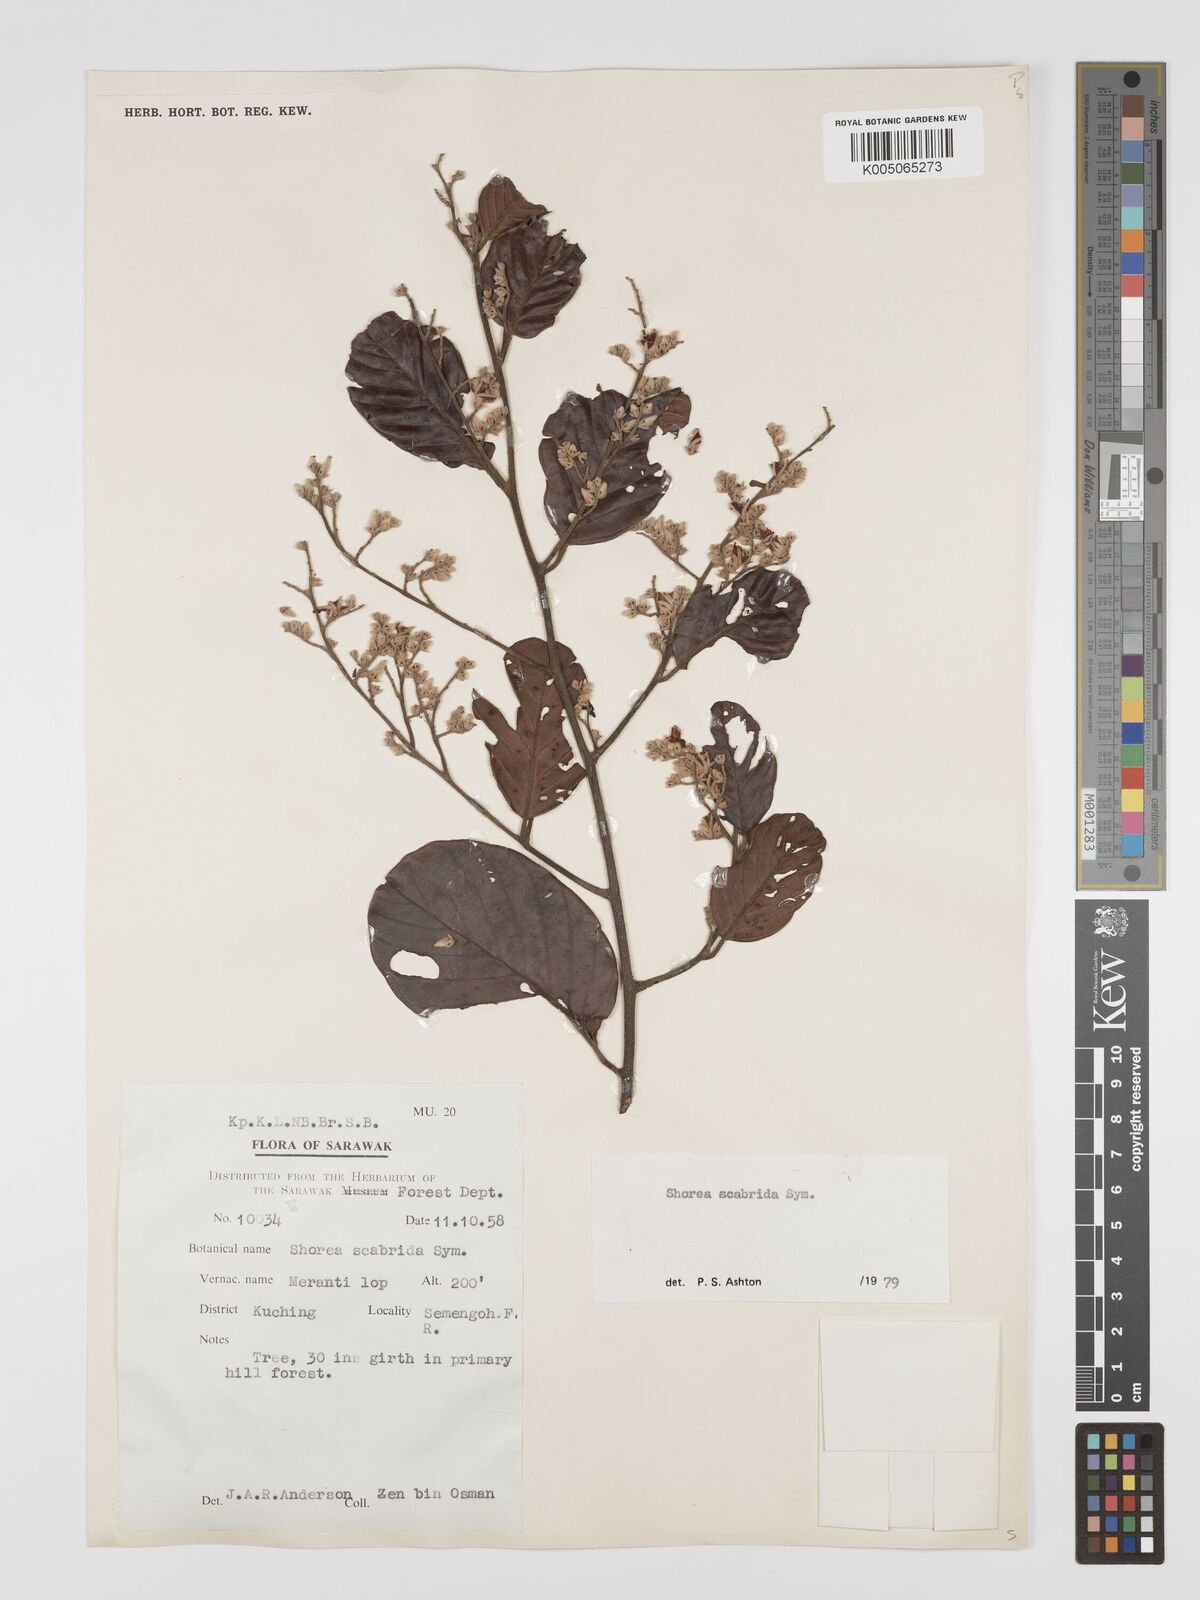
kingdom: Plantae
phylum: Tracheophyta
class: Magnoliopsida
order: Malvales
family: Dipterocarpaceae
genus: Shorea
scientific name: Shorea scabrida
